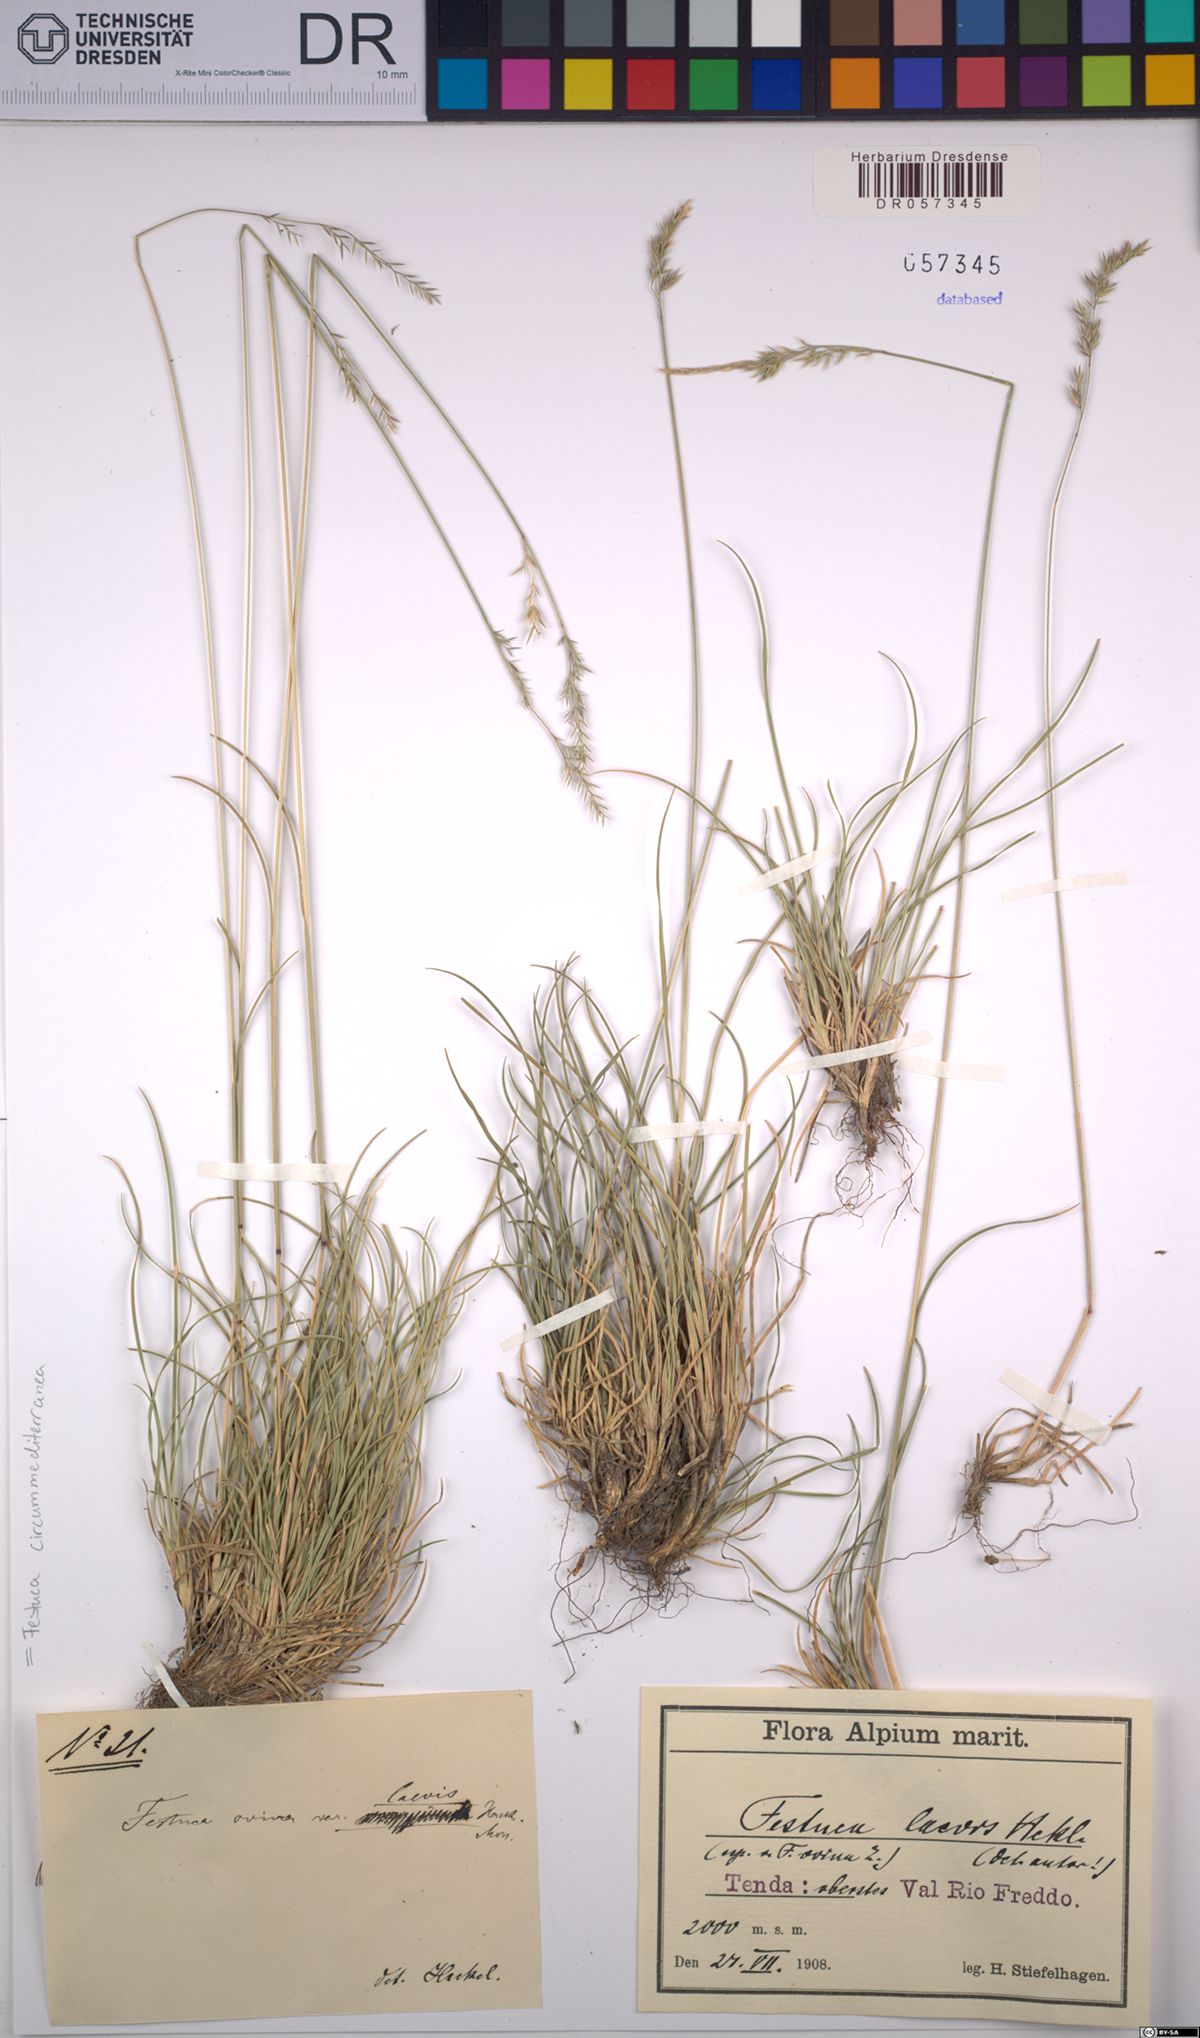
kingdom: Plantae
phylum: Tracheophyta
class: Liliopsida
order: Poales
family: Poaceae
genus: Festuca
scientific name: Festuca circummediterranea
